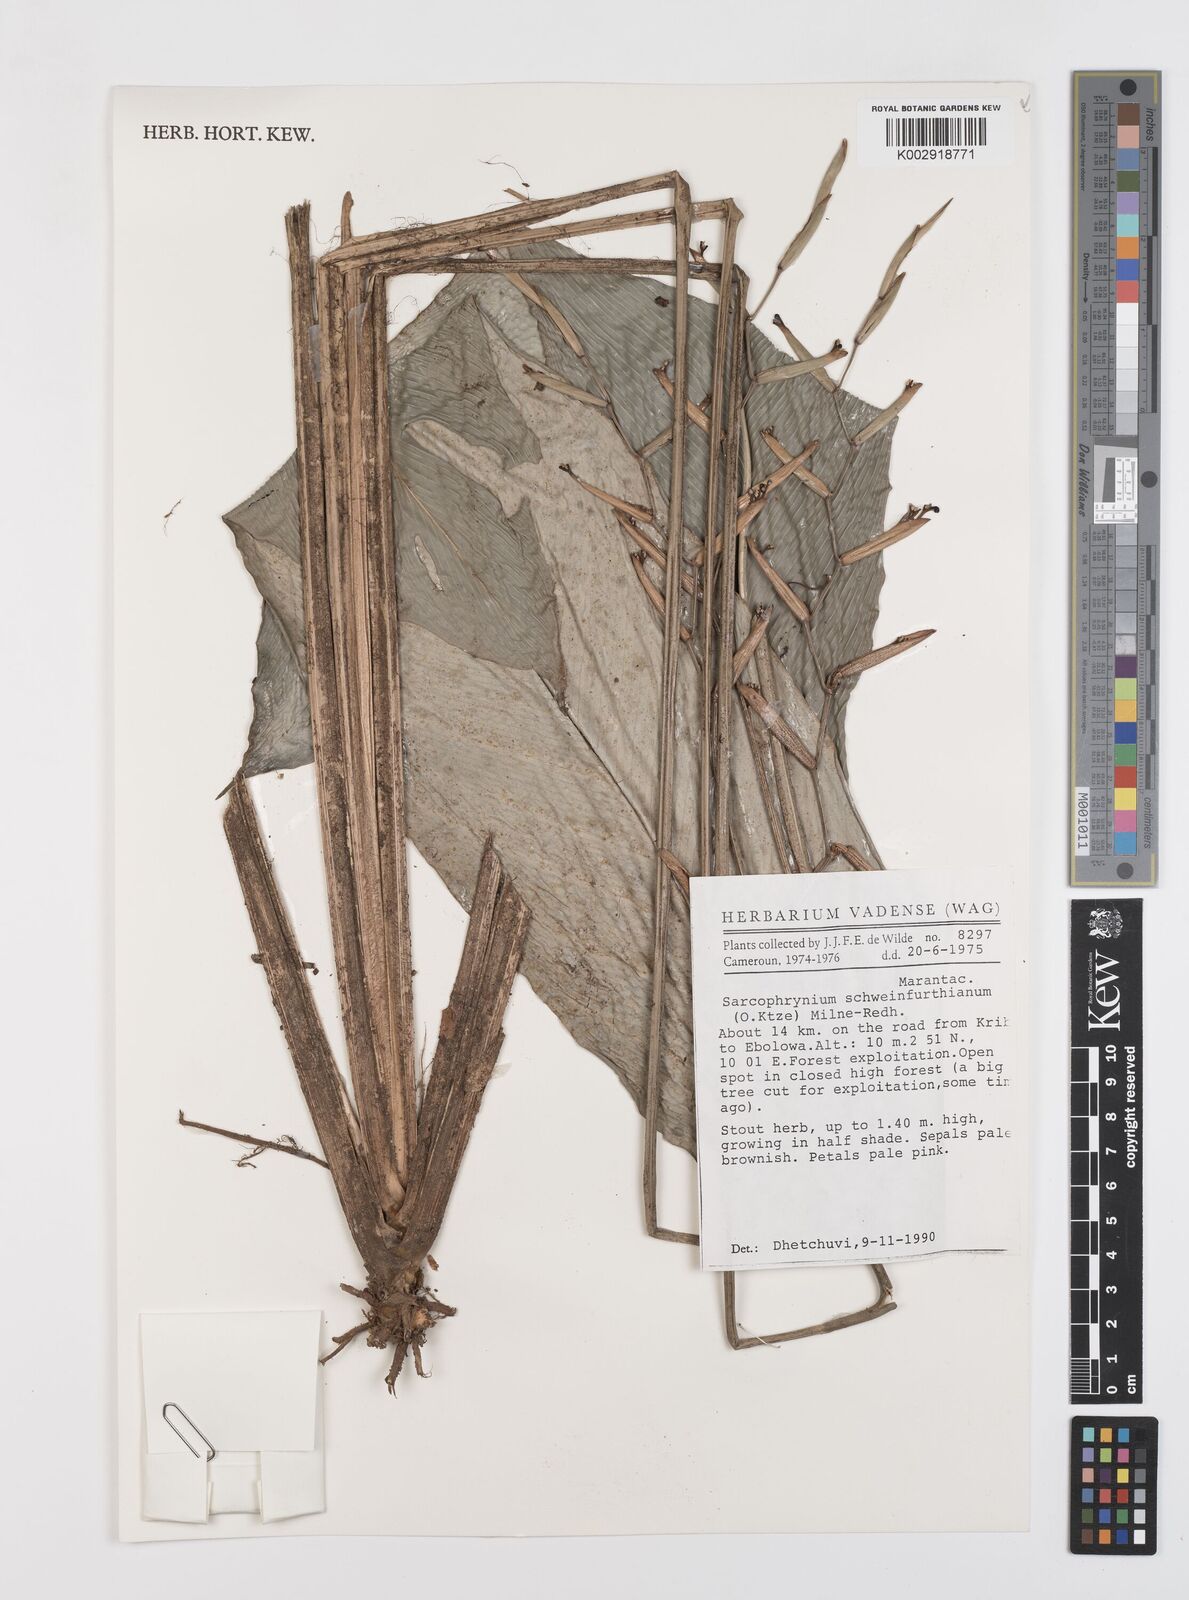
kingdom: Plantae
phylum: Tracheophyta
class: Liliopsida
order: Zingiberales
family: Marantaceae
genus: Sarcophrynium
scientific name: Sarcophrynium schweinfurthianum
